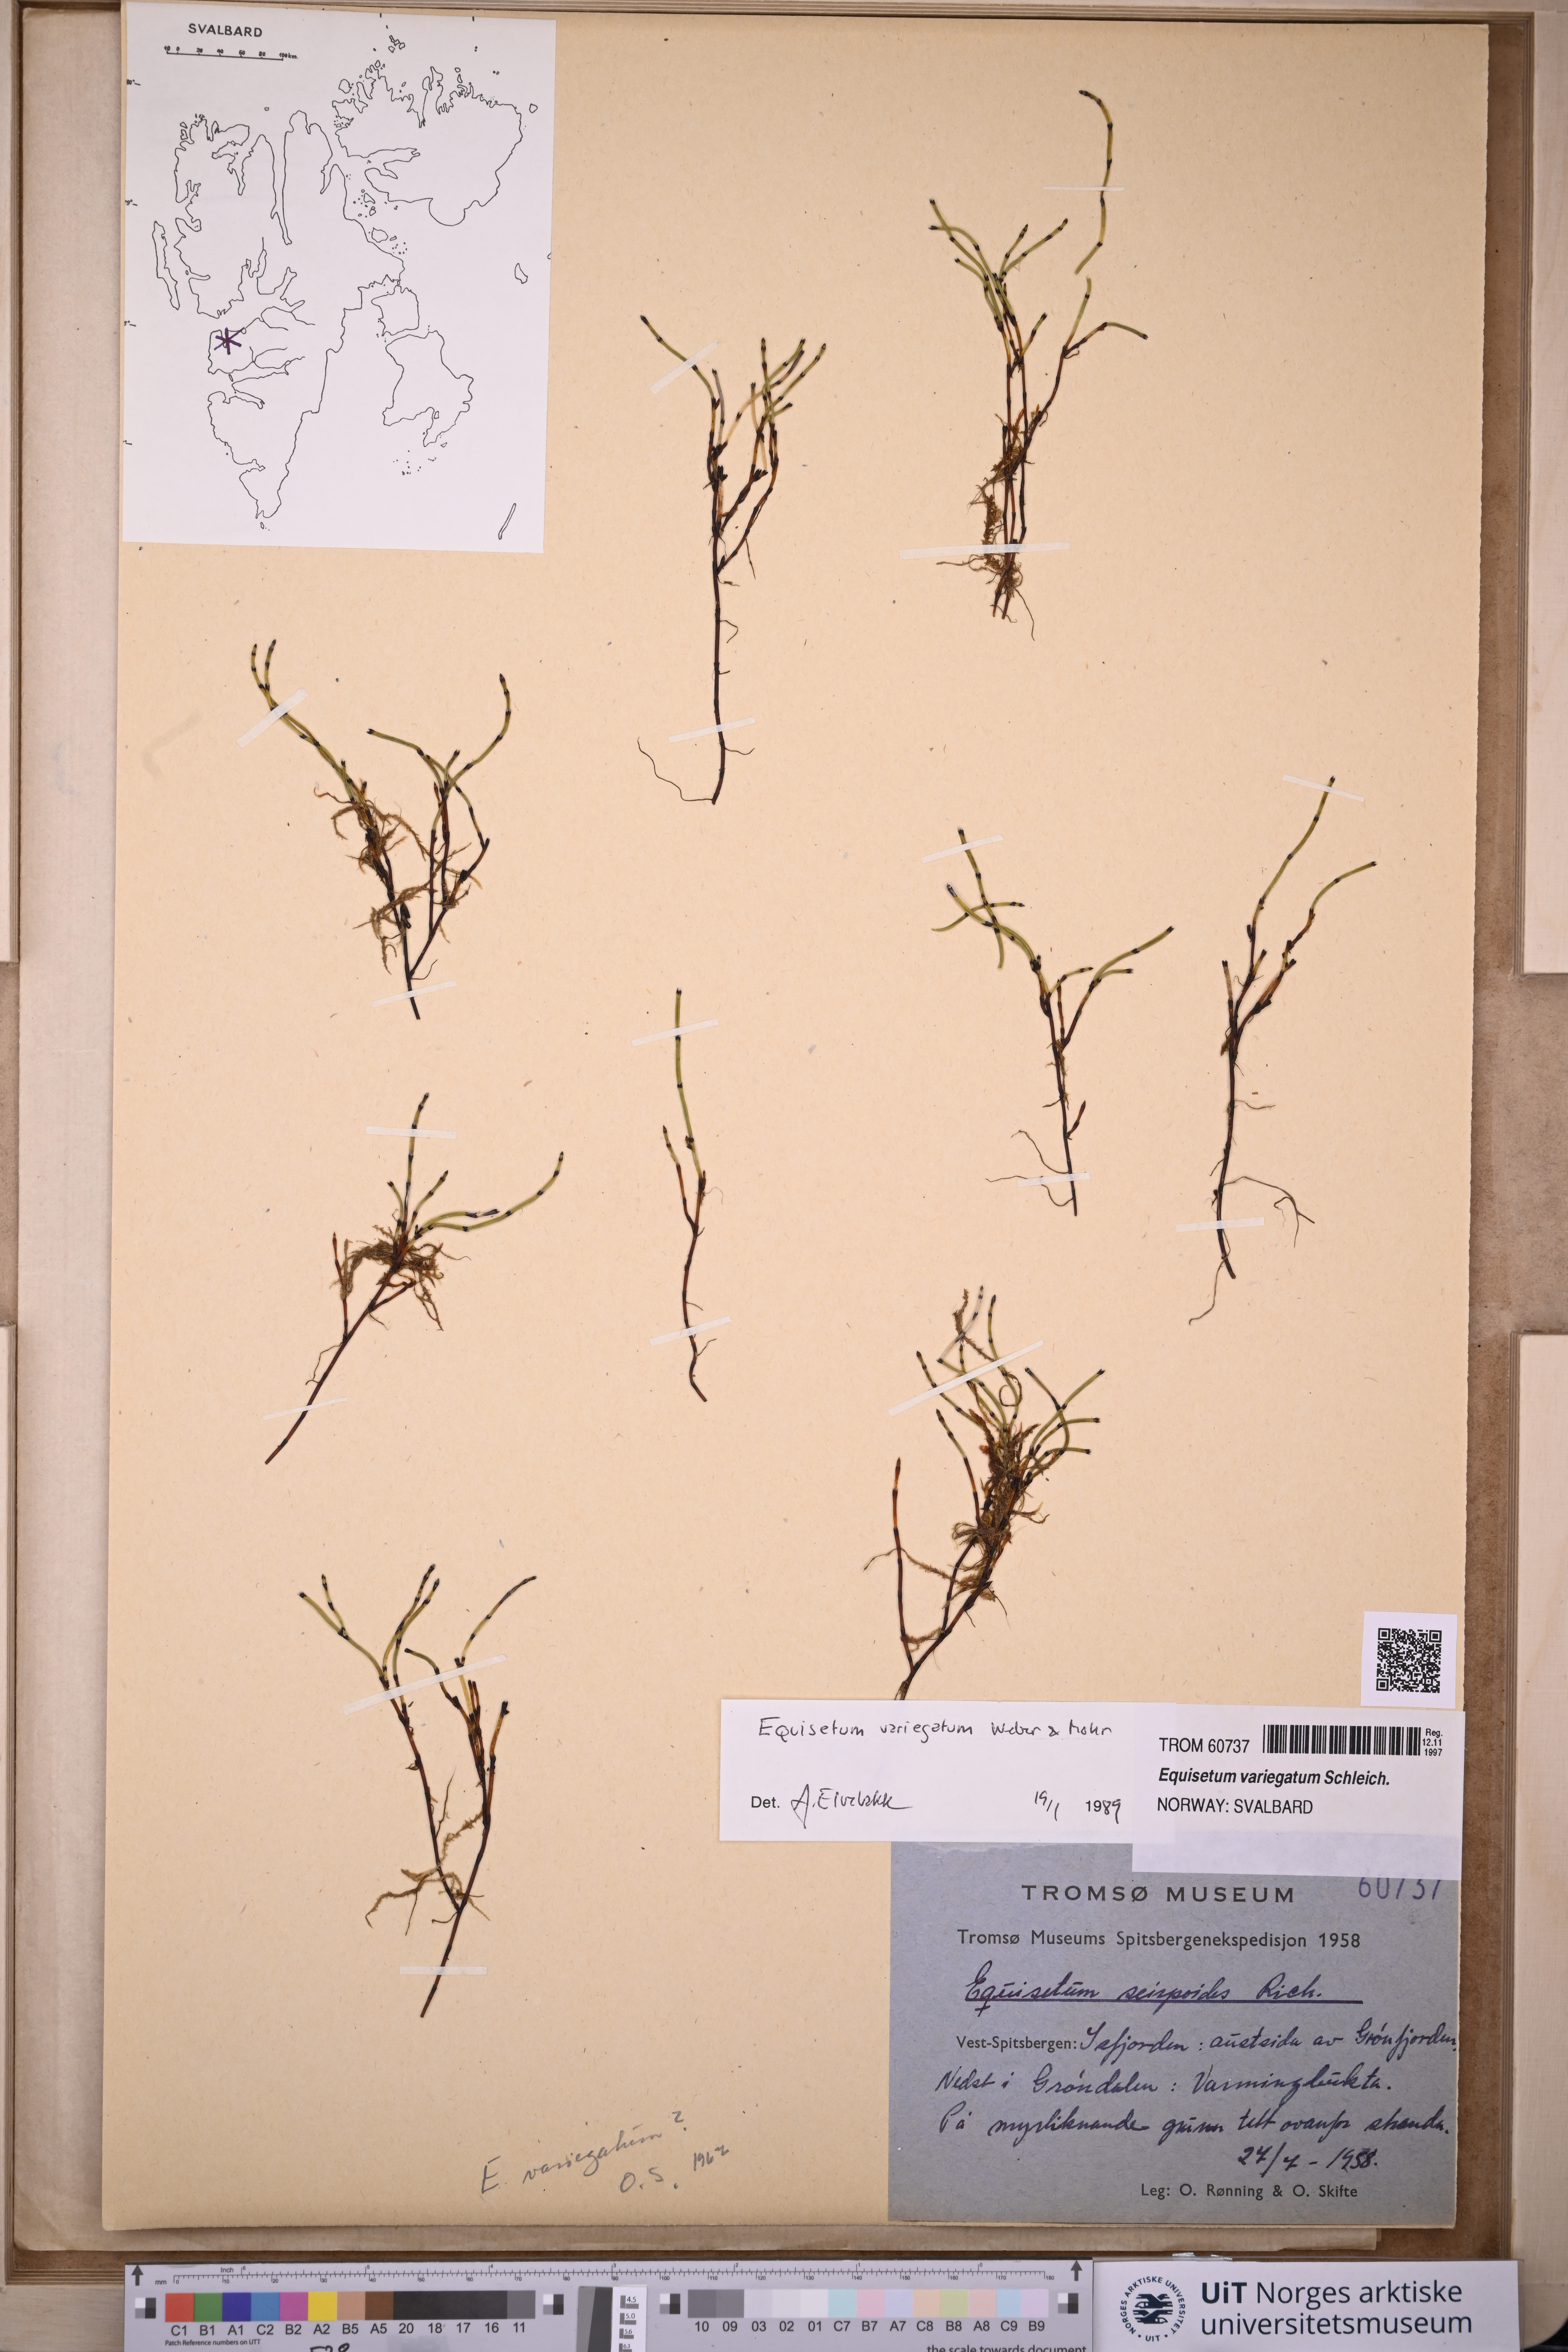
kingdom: Plantae
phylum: Tracheophyta
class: Polypodiopsida
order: Equisetales
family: Equisetaceae
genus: Equisetum
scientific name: Equisetum variegatum
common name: Variegated horsetail
